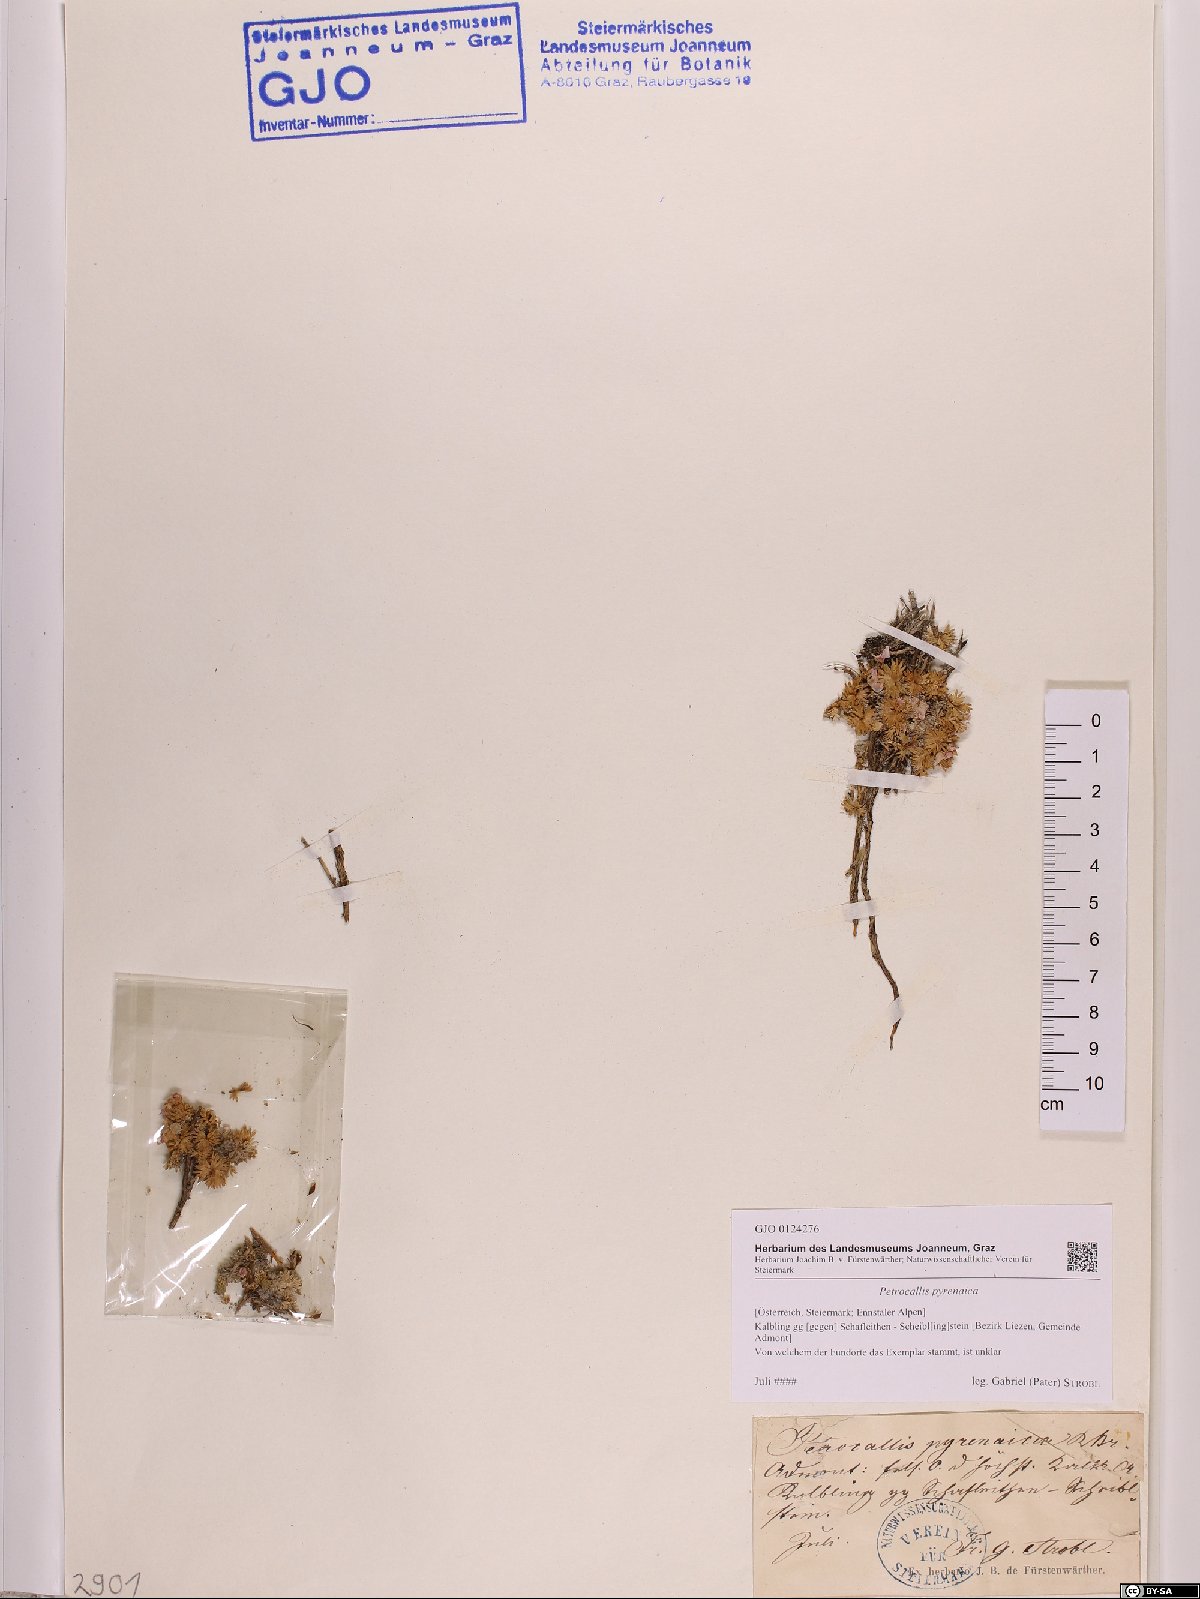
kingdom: Plantae
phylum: Tracheophyta
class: Magnoliopsida
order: Brassicales
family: Brassicaceae
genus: Petrocallis
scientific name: Petrocallis pyrenaica
